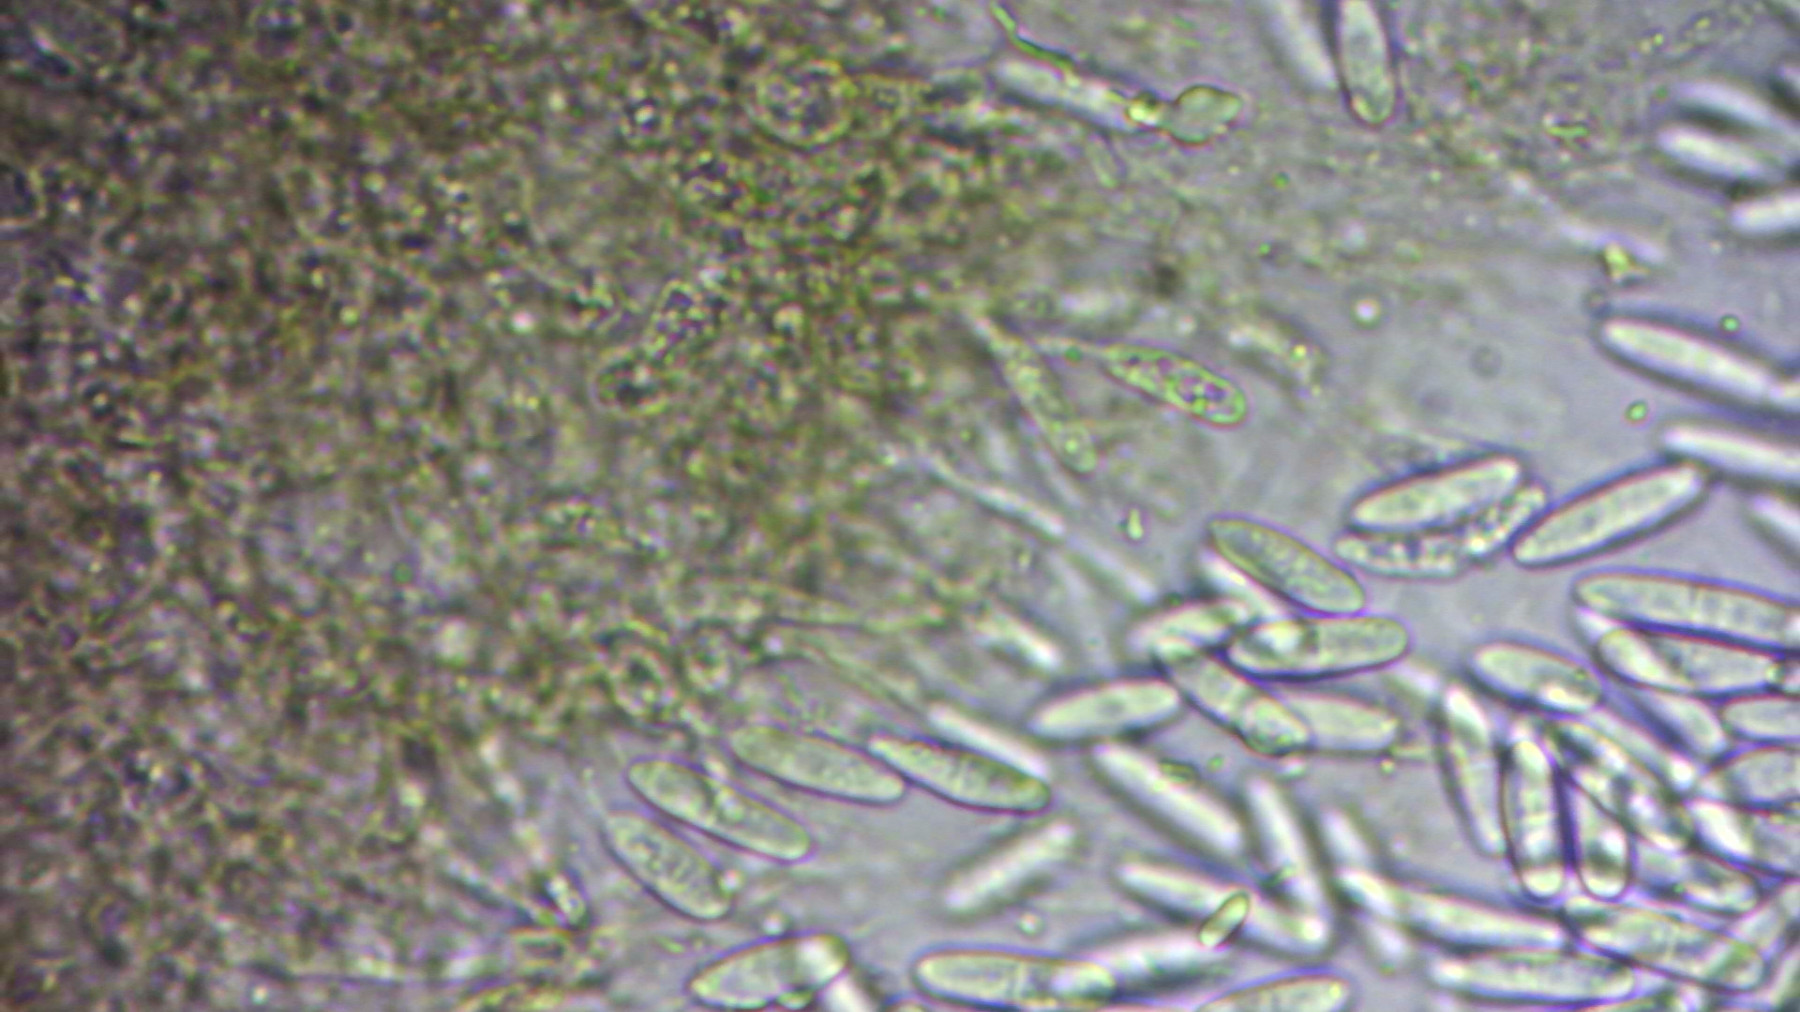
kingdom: Fungi
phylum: Ascomycota
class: Sordariomycetes
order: Diaporthales
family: Gnomoniaceae
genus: Plagiostoma
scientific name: Plagiostoma salicellum
